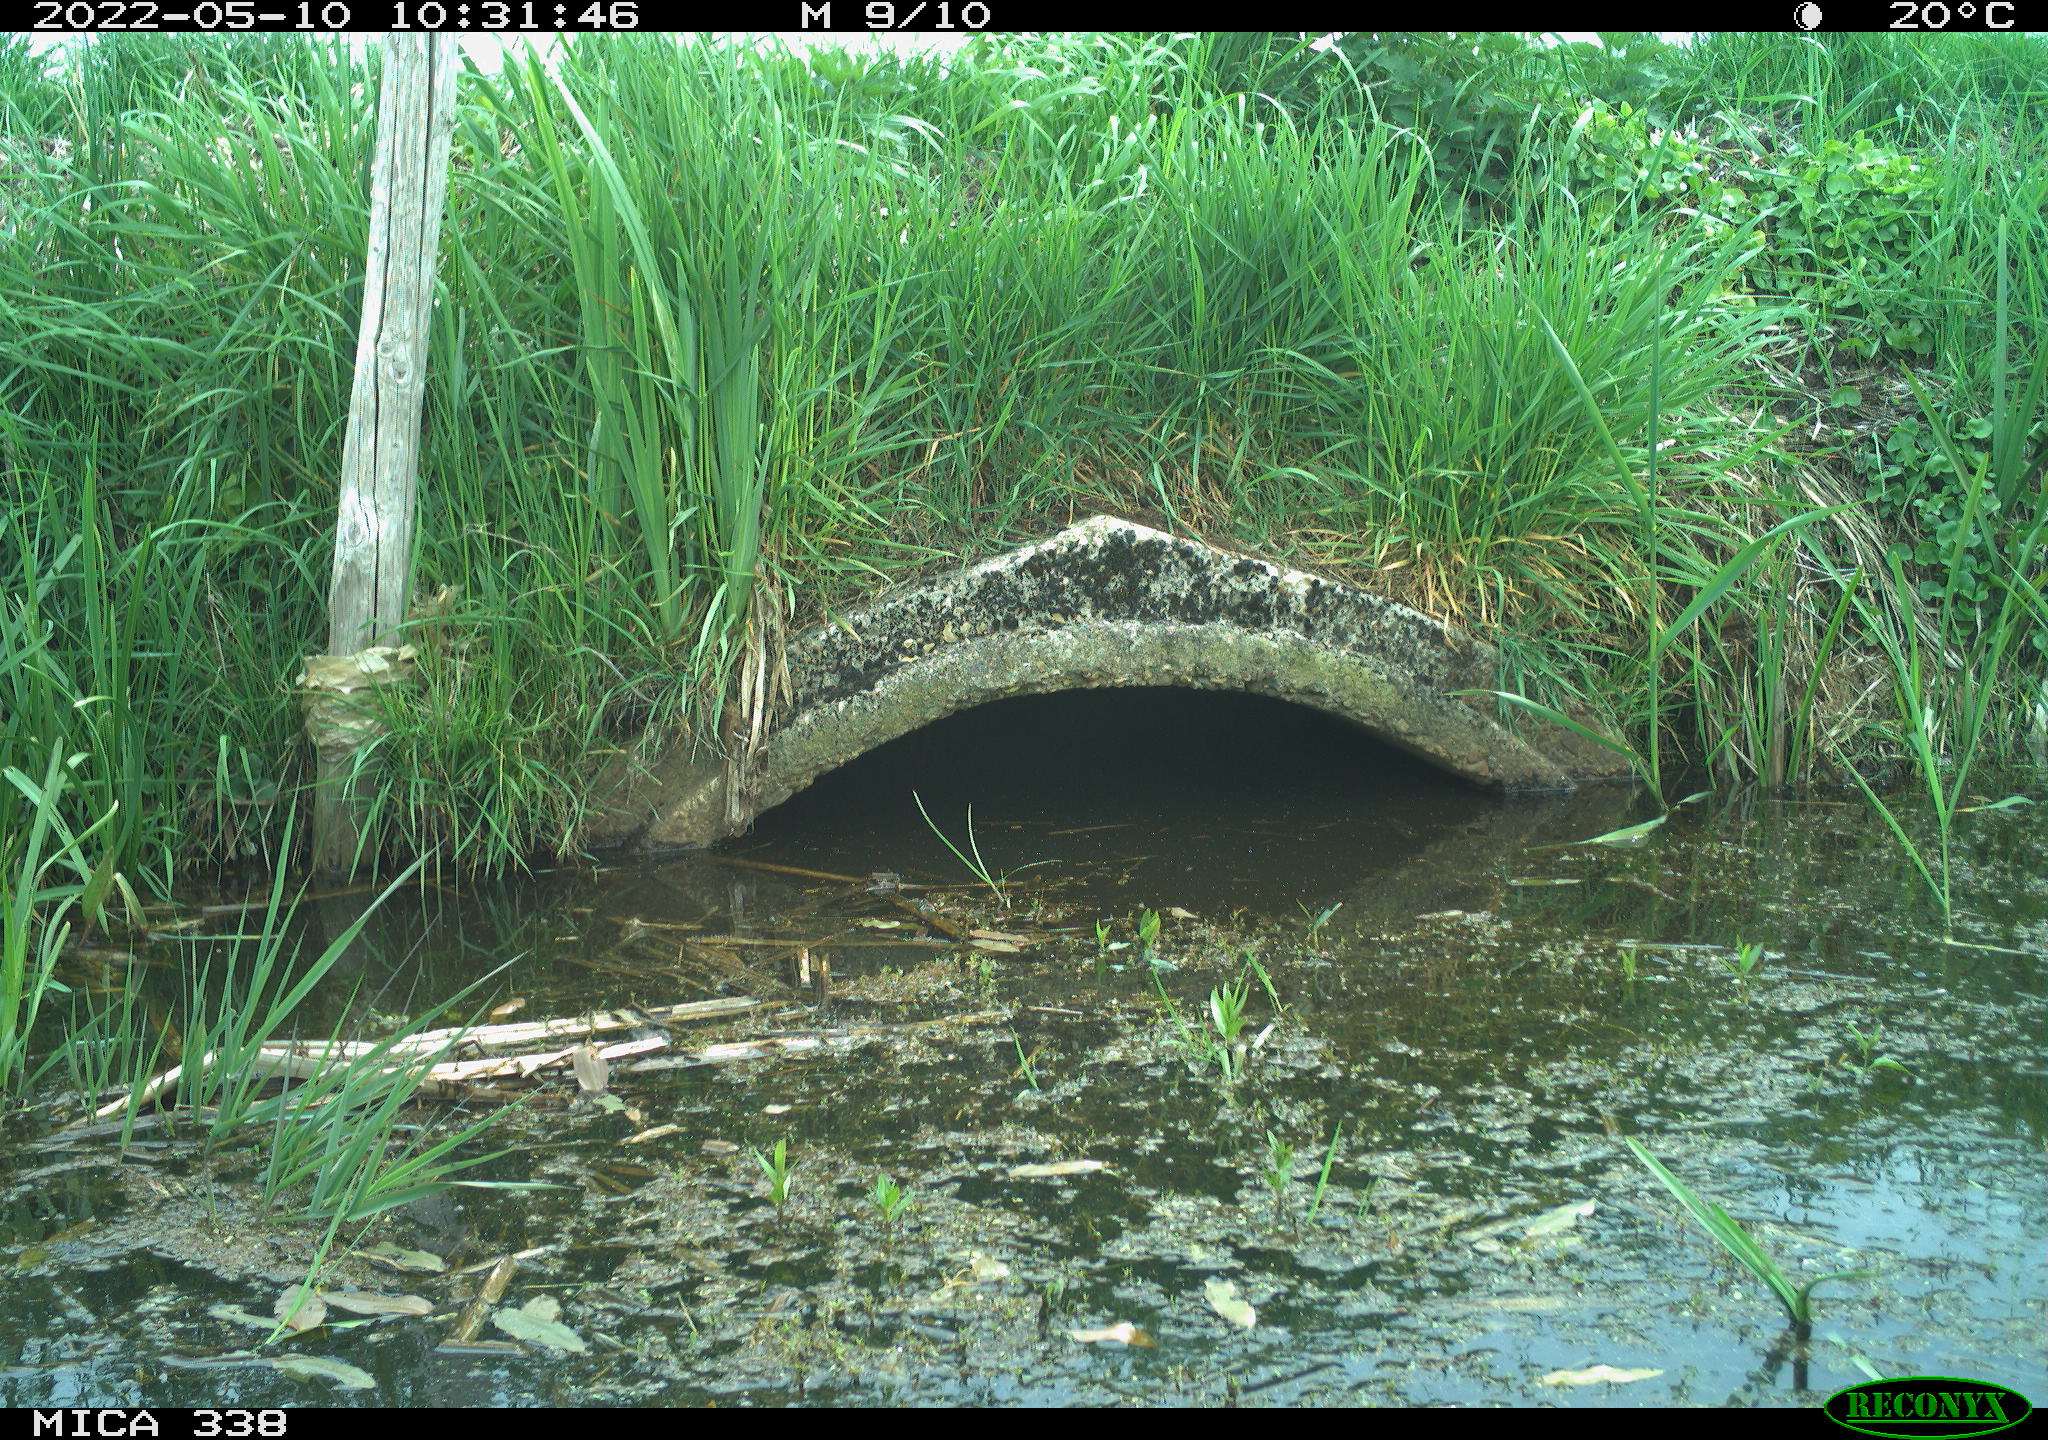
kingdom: Animalia
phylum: Chordata
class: Aves
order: Anseriformes
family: Anatidae
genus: Anas
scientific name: Anas platyrhynchos
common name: Mallard
